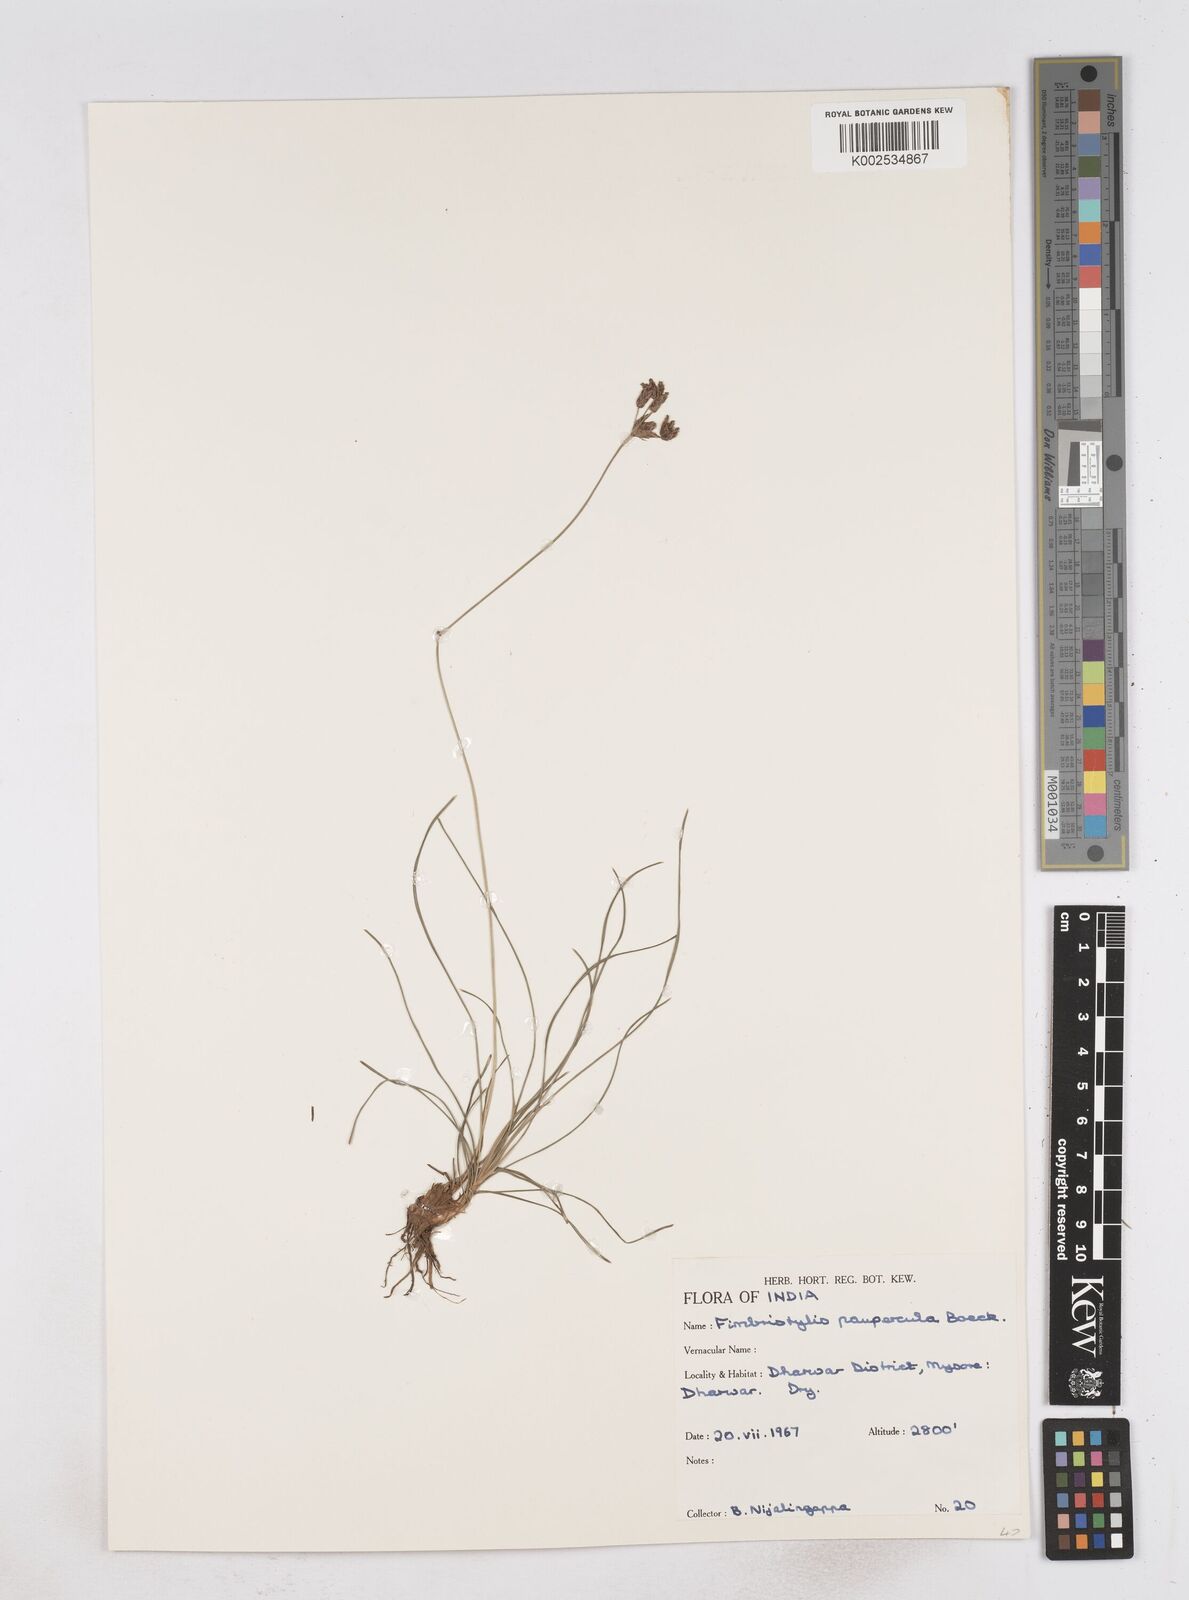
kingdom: Plantae
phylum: Tracheophyta
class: Liliopsida
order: Poales
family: Cyperaceae
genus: Fimbristylis
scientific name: Fimbristylis paupercula
